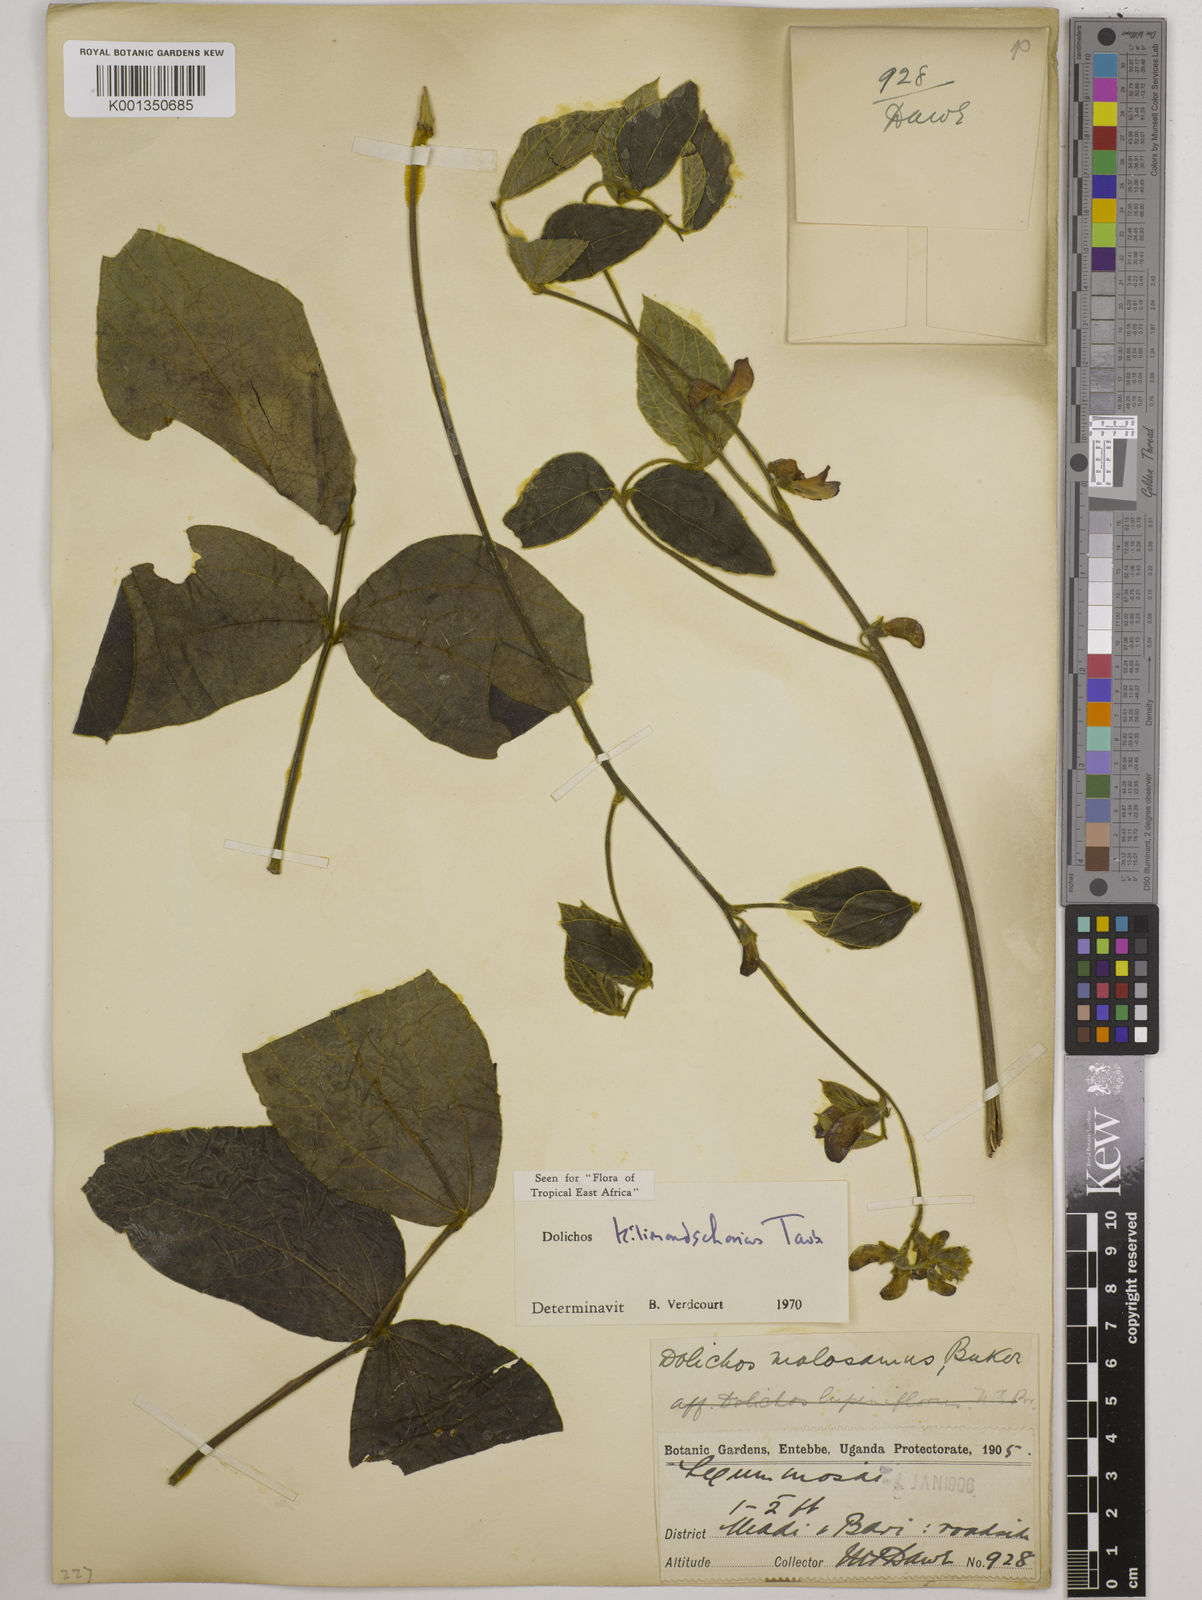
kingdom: Plantae
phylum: Tracheophyta
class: Magnoliopsida
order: Fabales
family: Fabaceae
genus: Dolichos
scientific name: Dolichos kilimandscharicus
